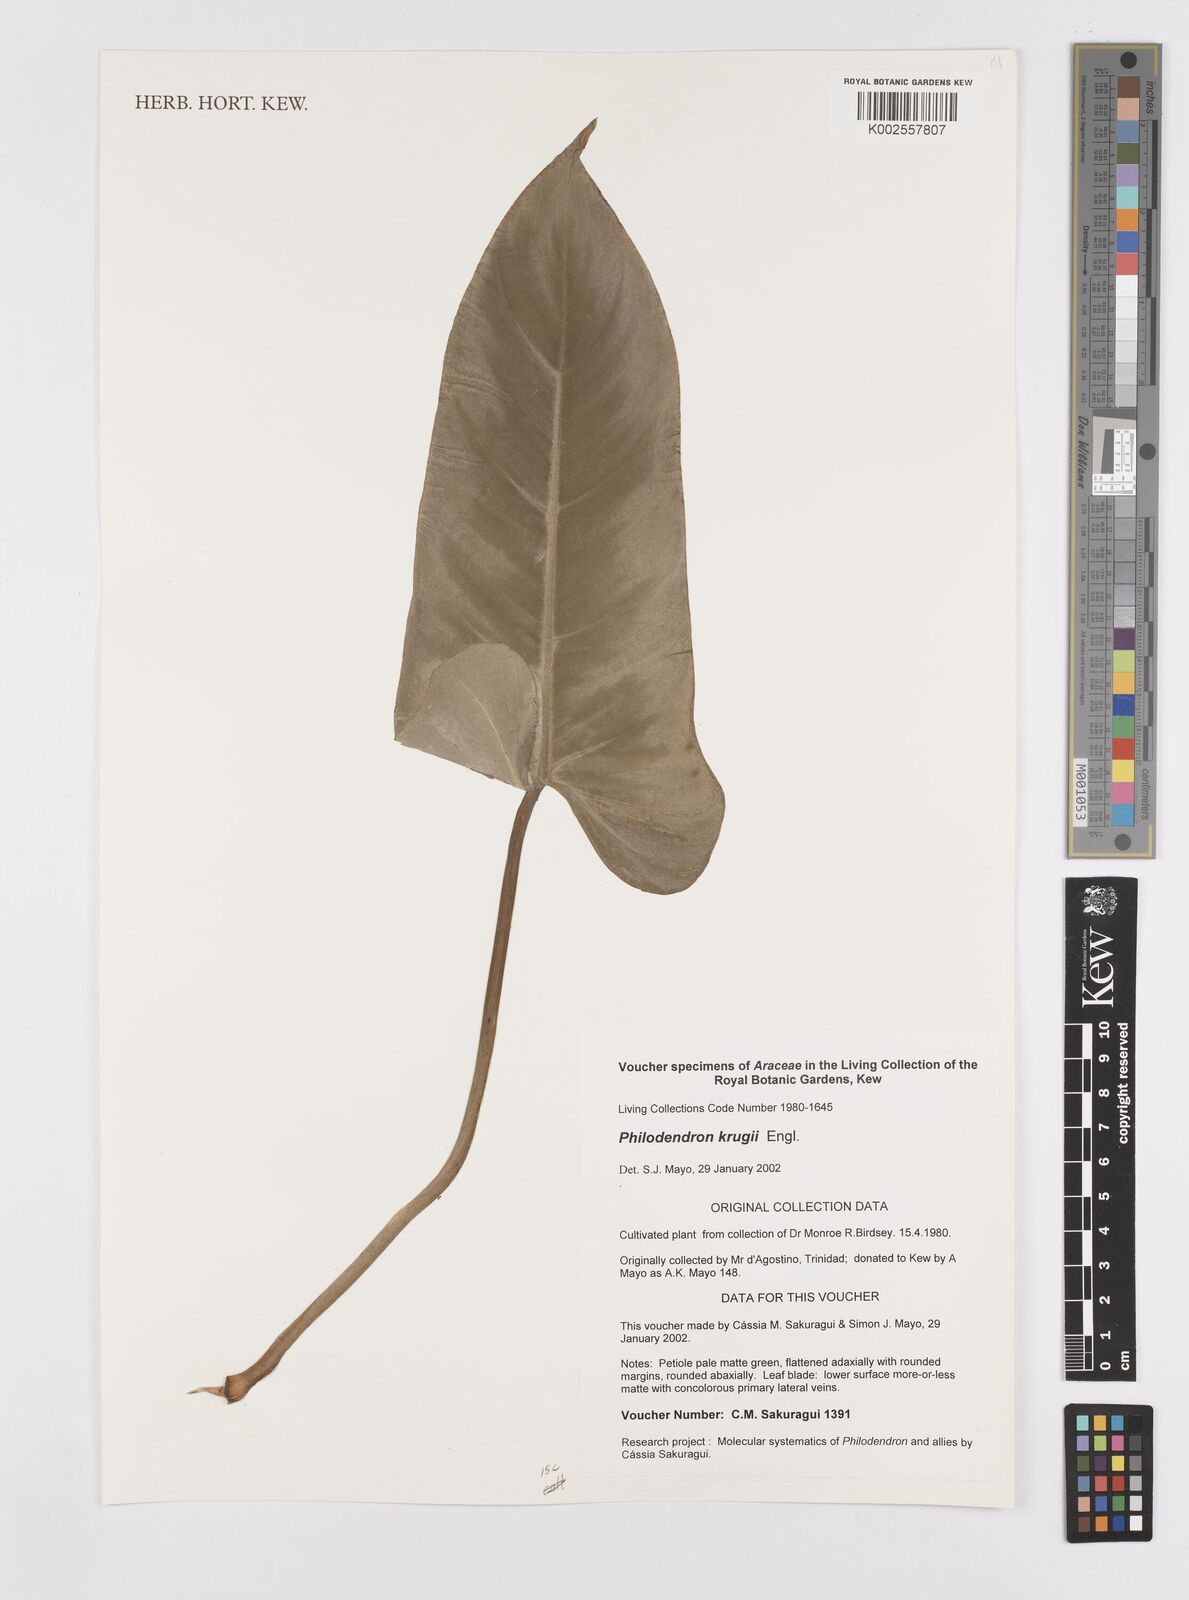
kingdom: Plantae
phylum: Tracheophyta
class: Liliopsida
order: Alismatales
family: Araceae
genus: Philodendron
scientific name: Philodendron krugii
